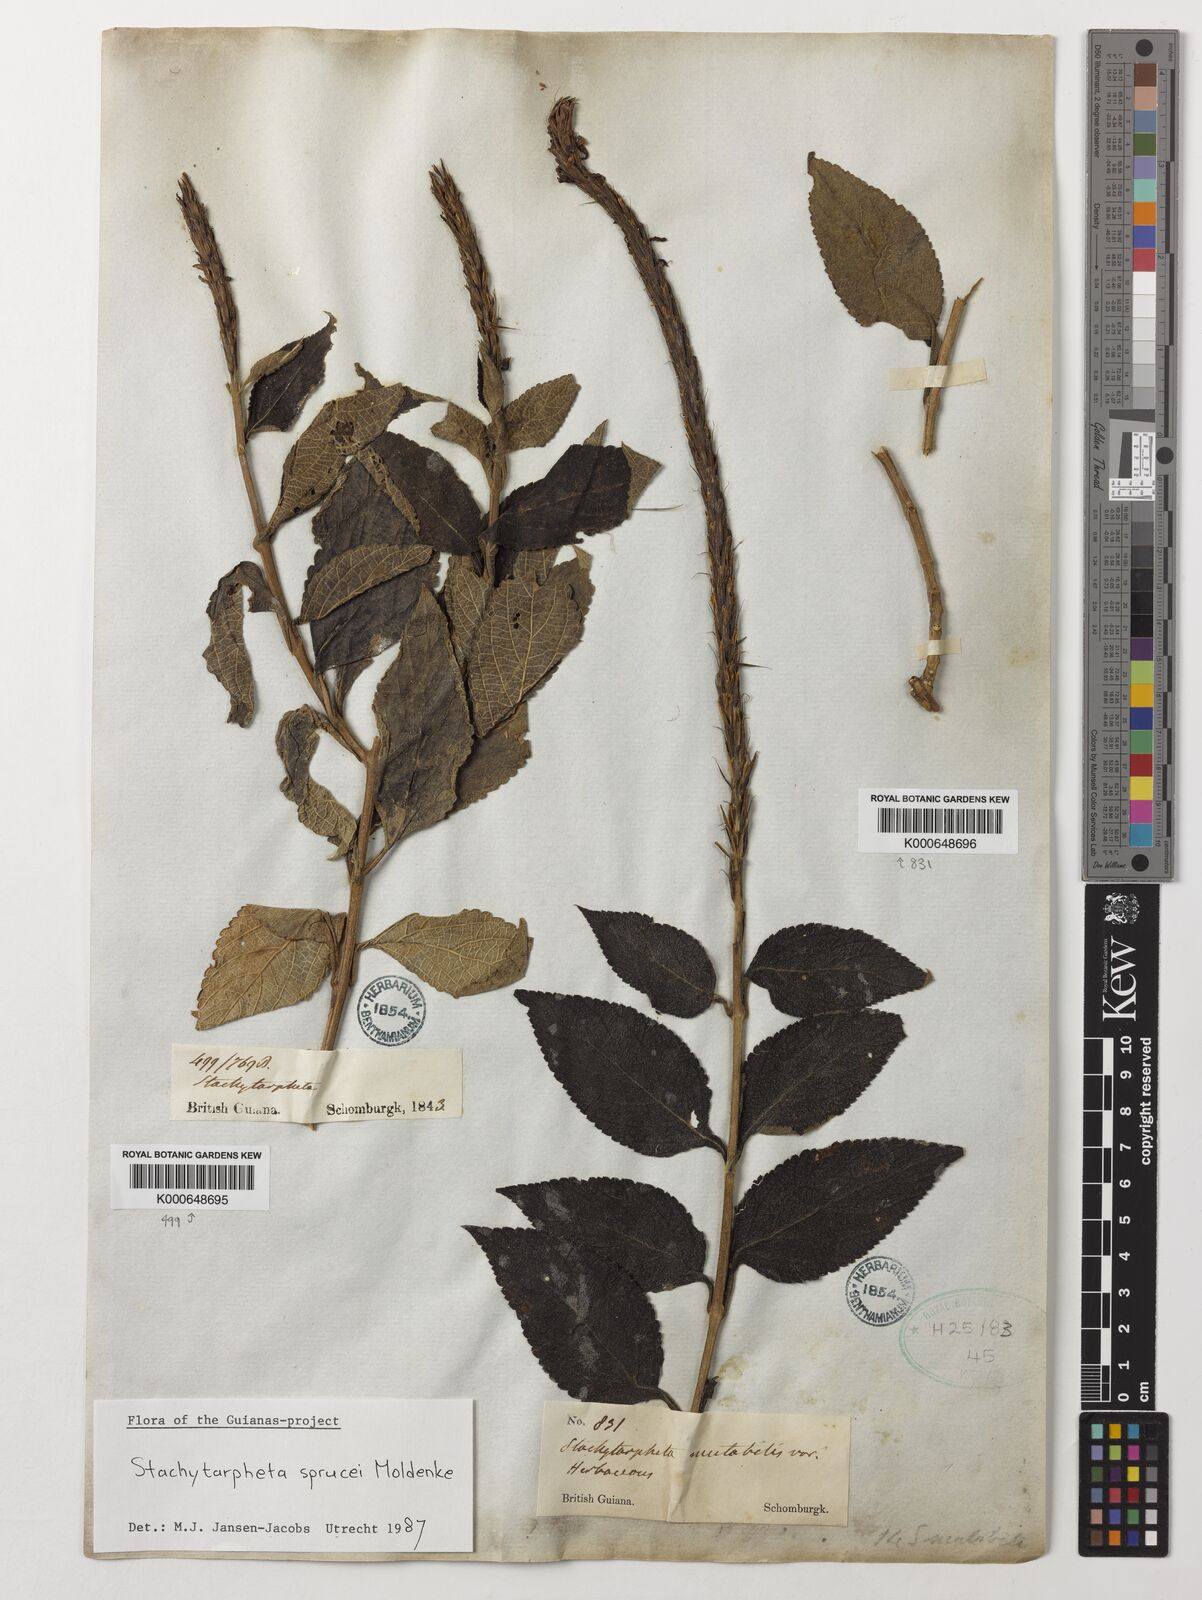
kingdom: Plantae
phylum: Tracheophyta
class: Magnoliopsida
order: Lamiales
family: Verbenaceae
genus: Stachytarpheta
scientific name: Stachytarpheta sprucei
